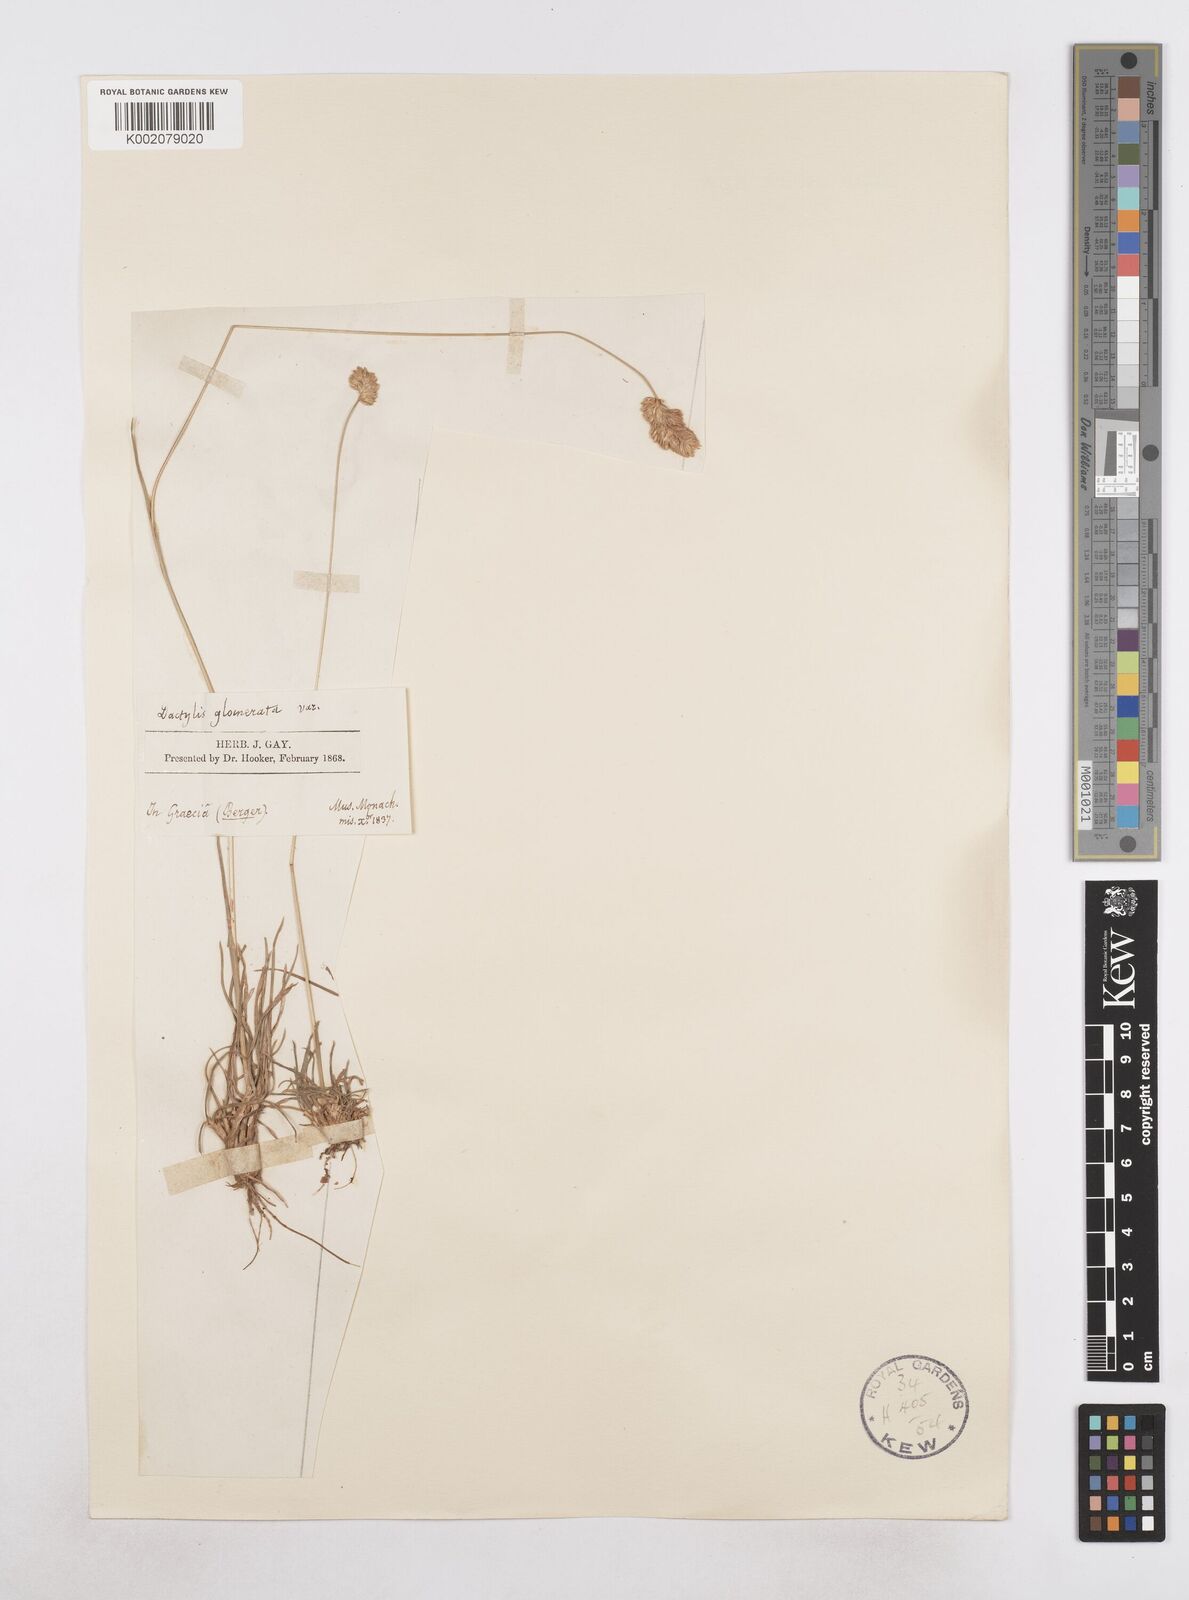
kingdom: Plantae
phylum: Tracheophyta
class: Liliopsida
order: Poales
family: Poaceae
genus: Dactylis
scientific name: Dactylis glomerata
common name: Orchardgrass
